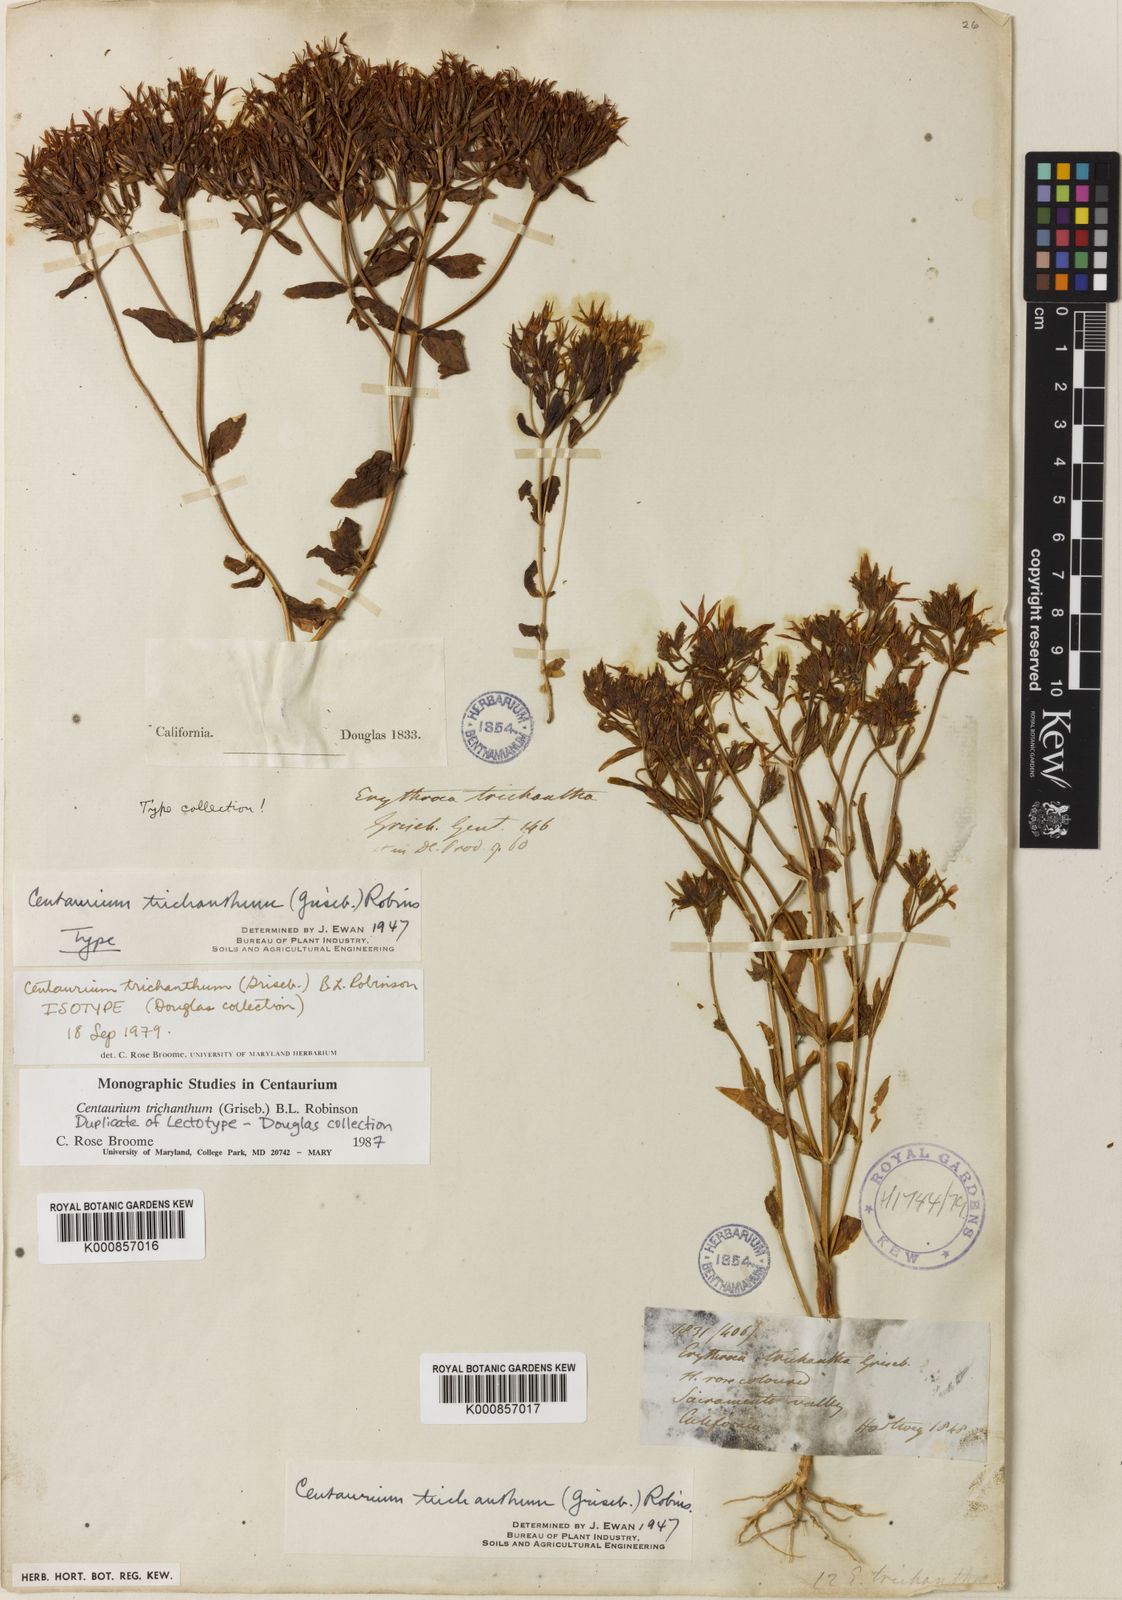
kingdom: Plantae
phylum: Tracheophyta
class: Magnoliopsida
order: Gentianales
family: Gentianaceae
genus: Zeltnera
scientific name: Zeltnera trichantha
